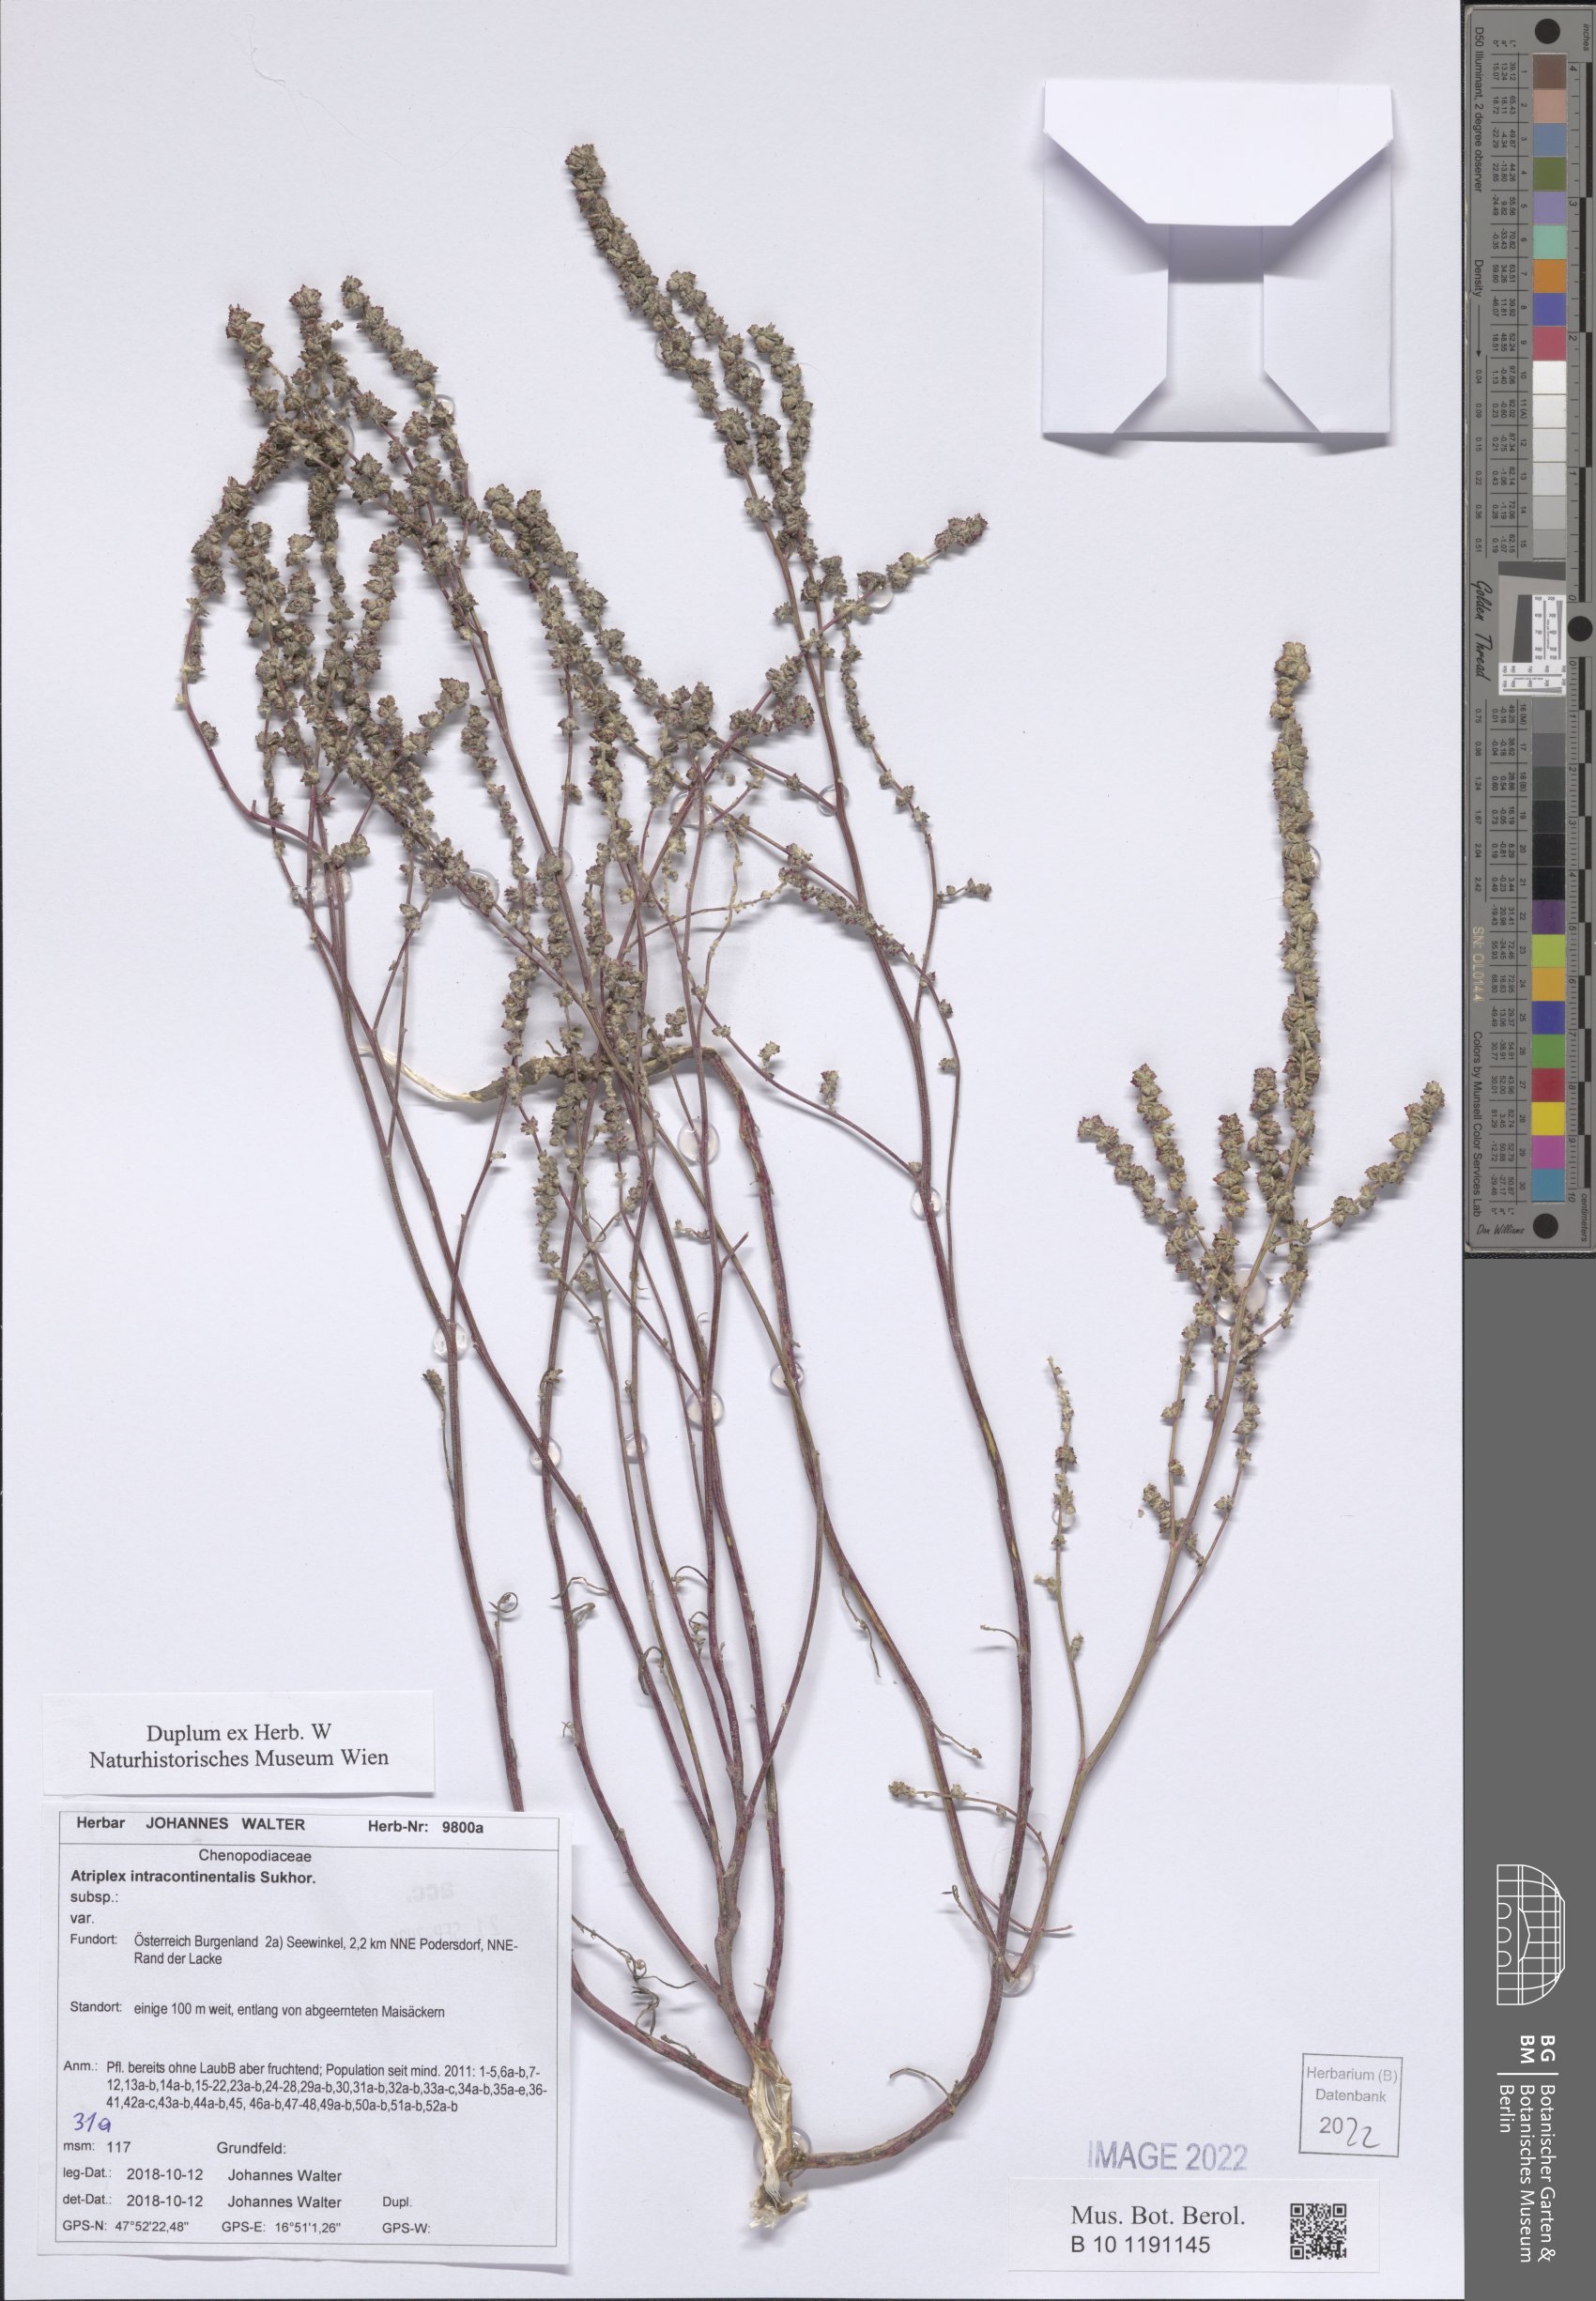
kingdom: Plantae
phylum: Tracheophyta
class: Magnoliopsida
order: Caryophyllales
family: Amaranthaceae
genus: Atriplex
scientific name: Atriplex intracontinentalis
